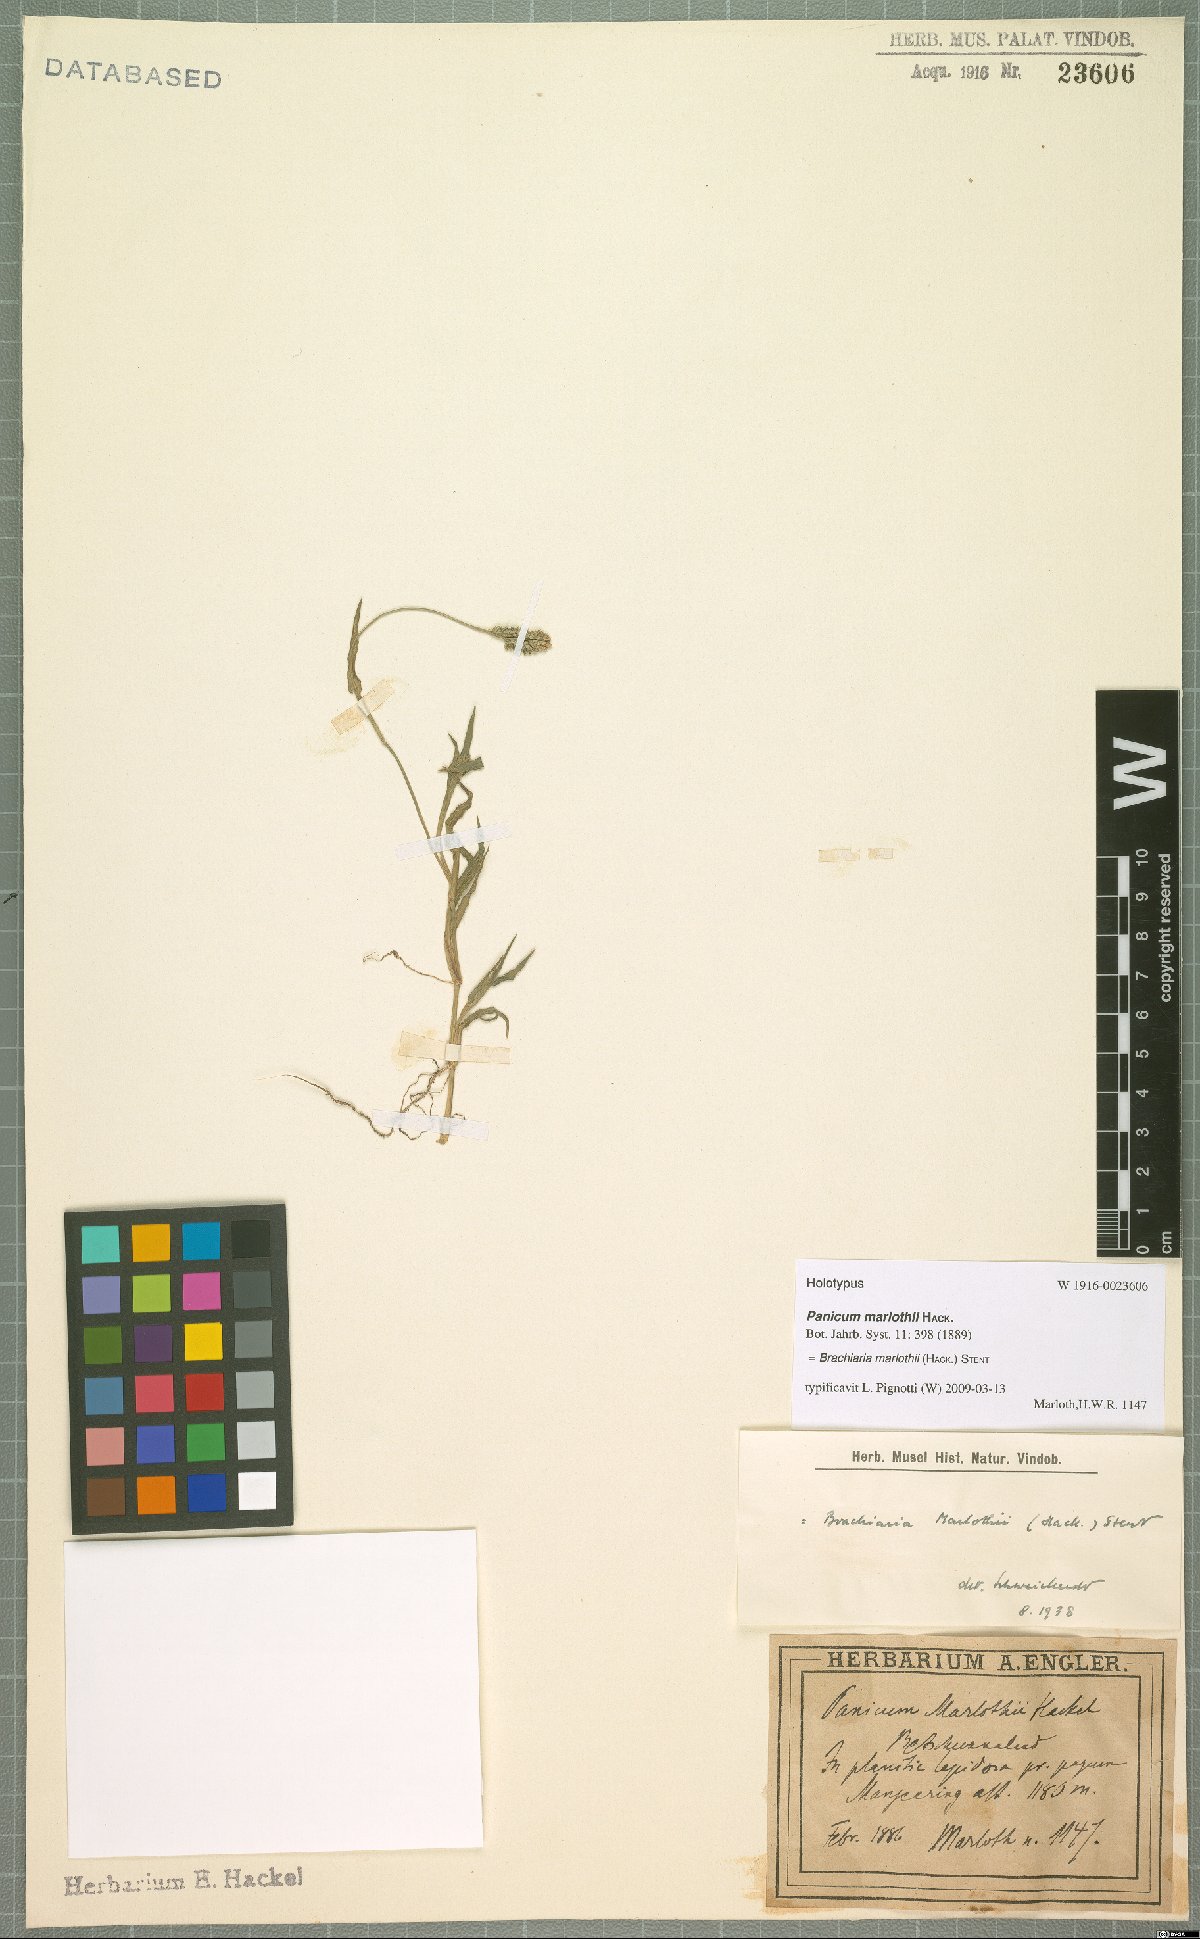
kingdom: Plantae
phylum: Tracheophyta
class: Liliopsida
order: Poales
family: Poaceae
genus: Urochloa
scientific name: Urochloa Brachiaria marlothii
